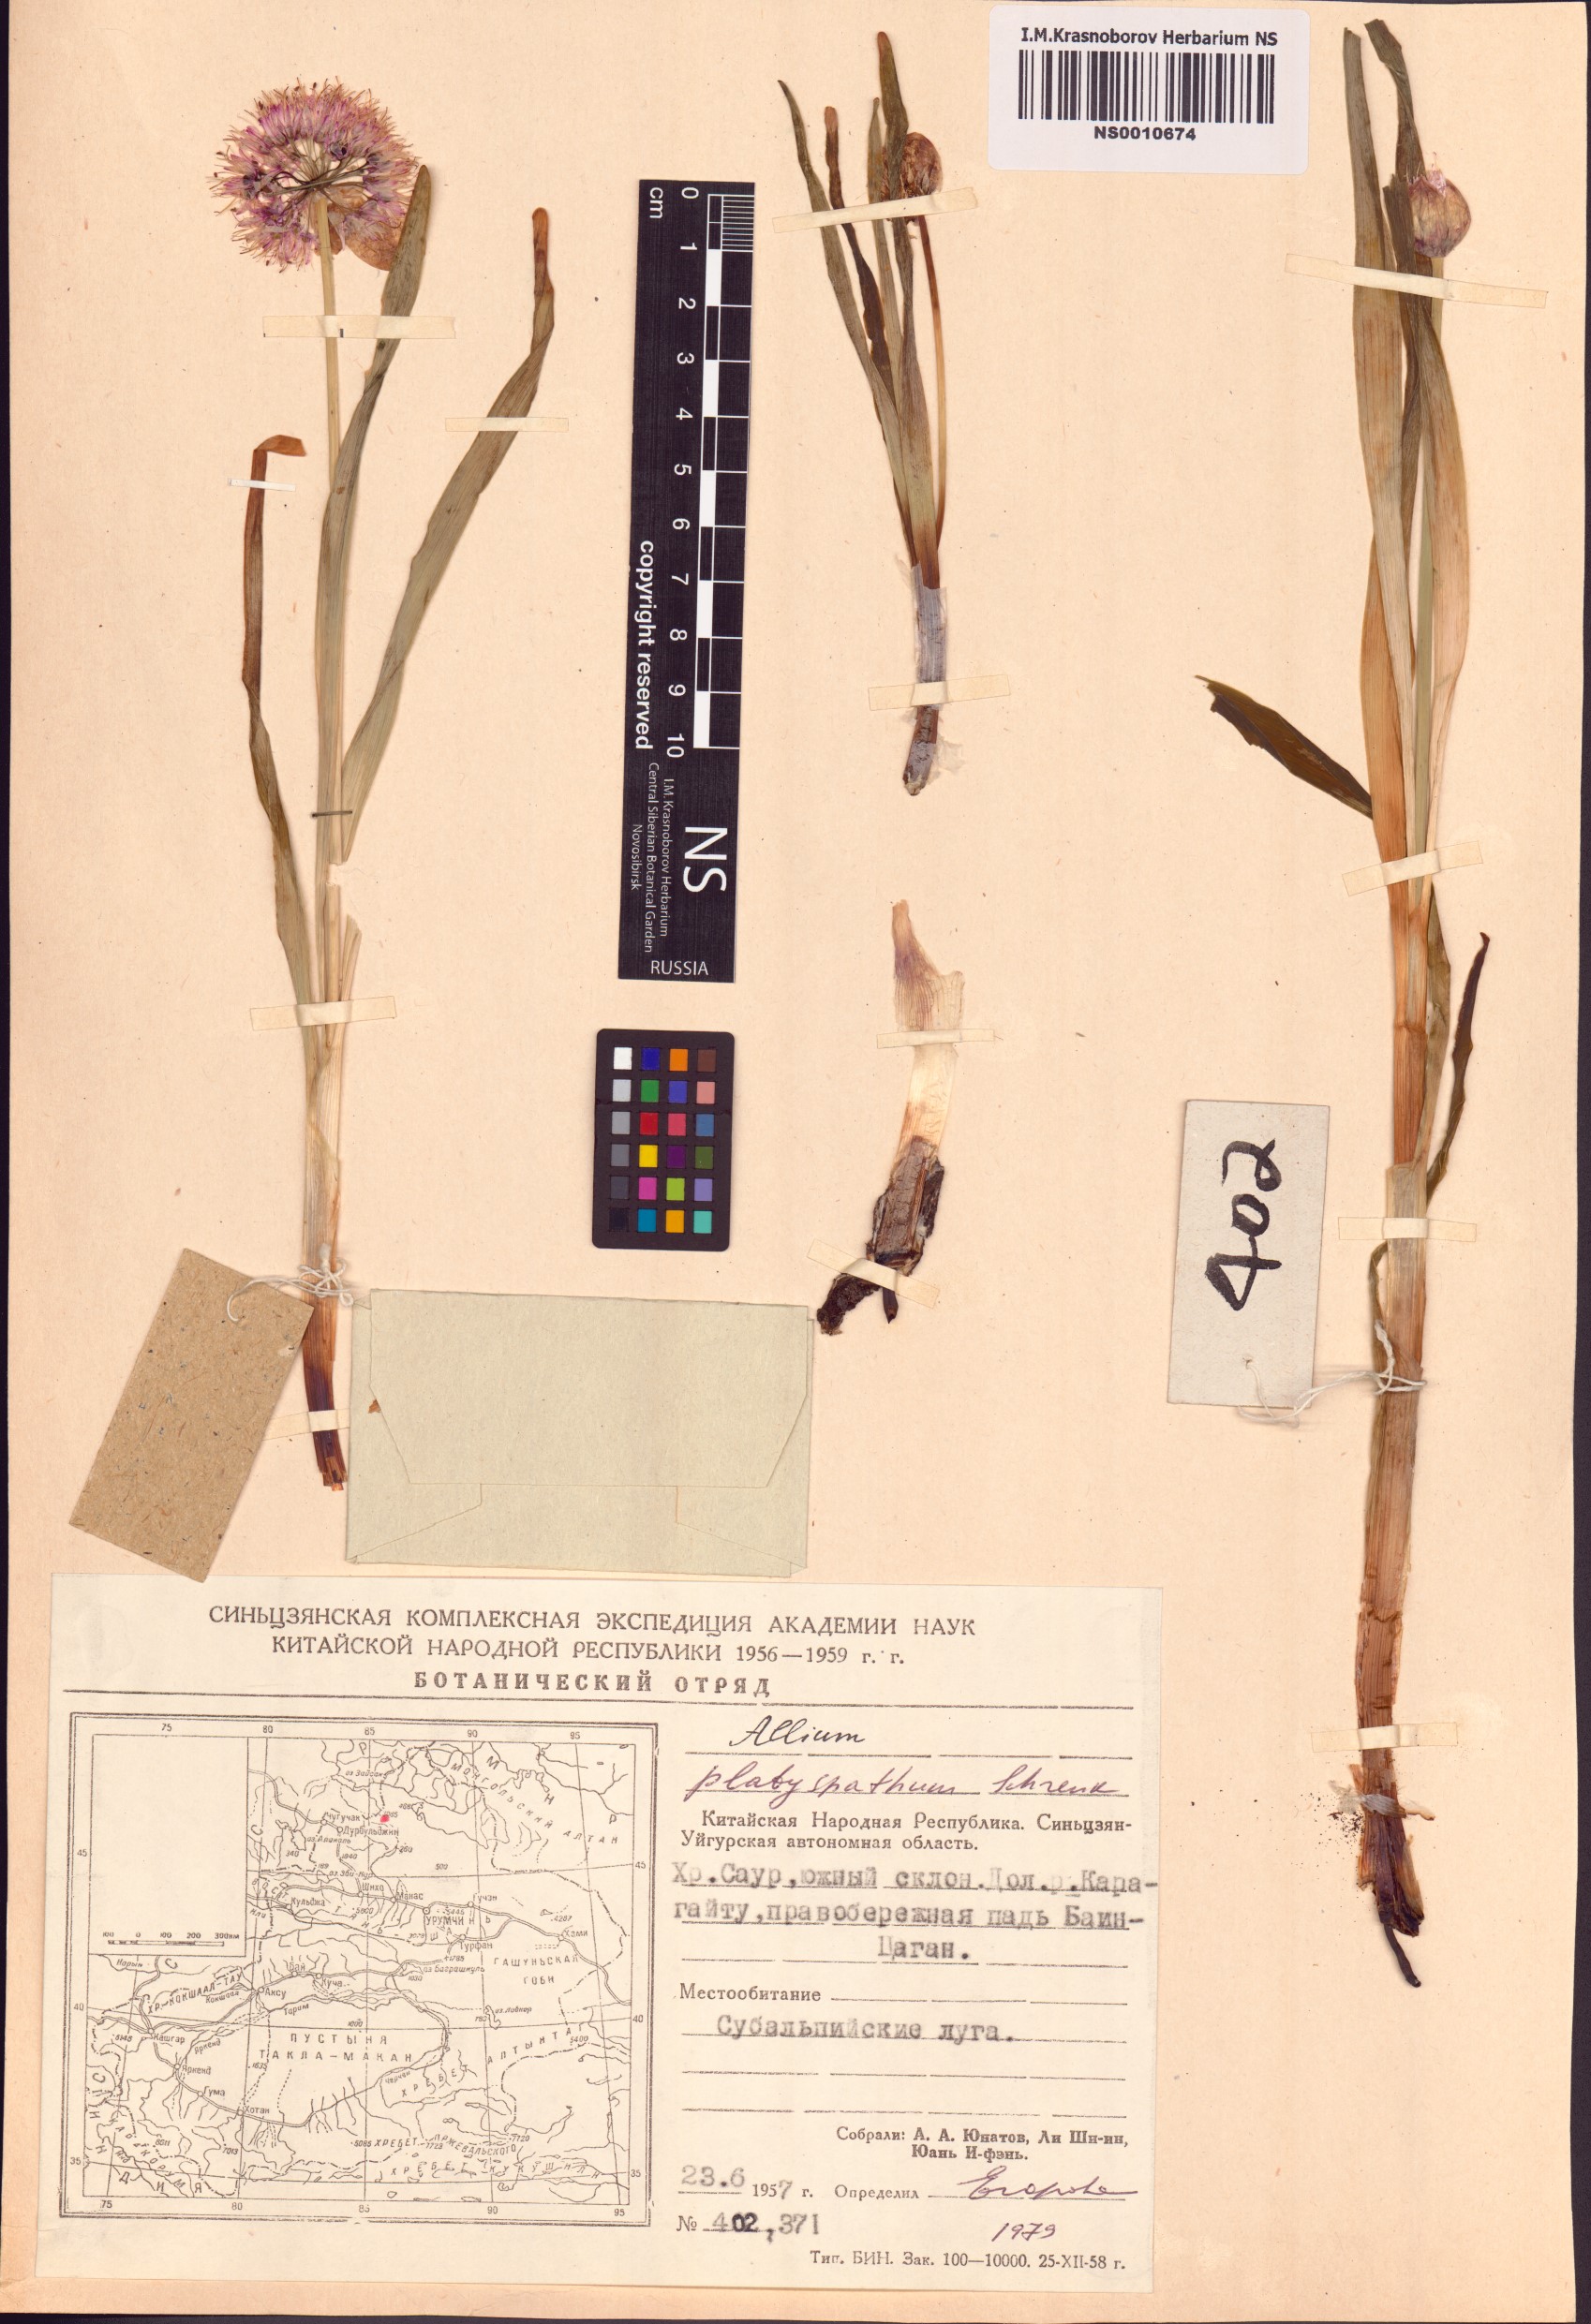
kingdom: Plantae
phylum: Tracheophyta
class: Liliopsida
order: Asparagales
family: Amaryllidaceae
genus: Allium
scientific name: Allium platyspathum
